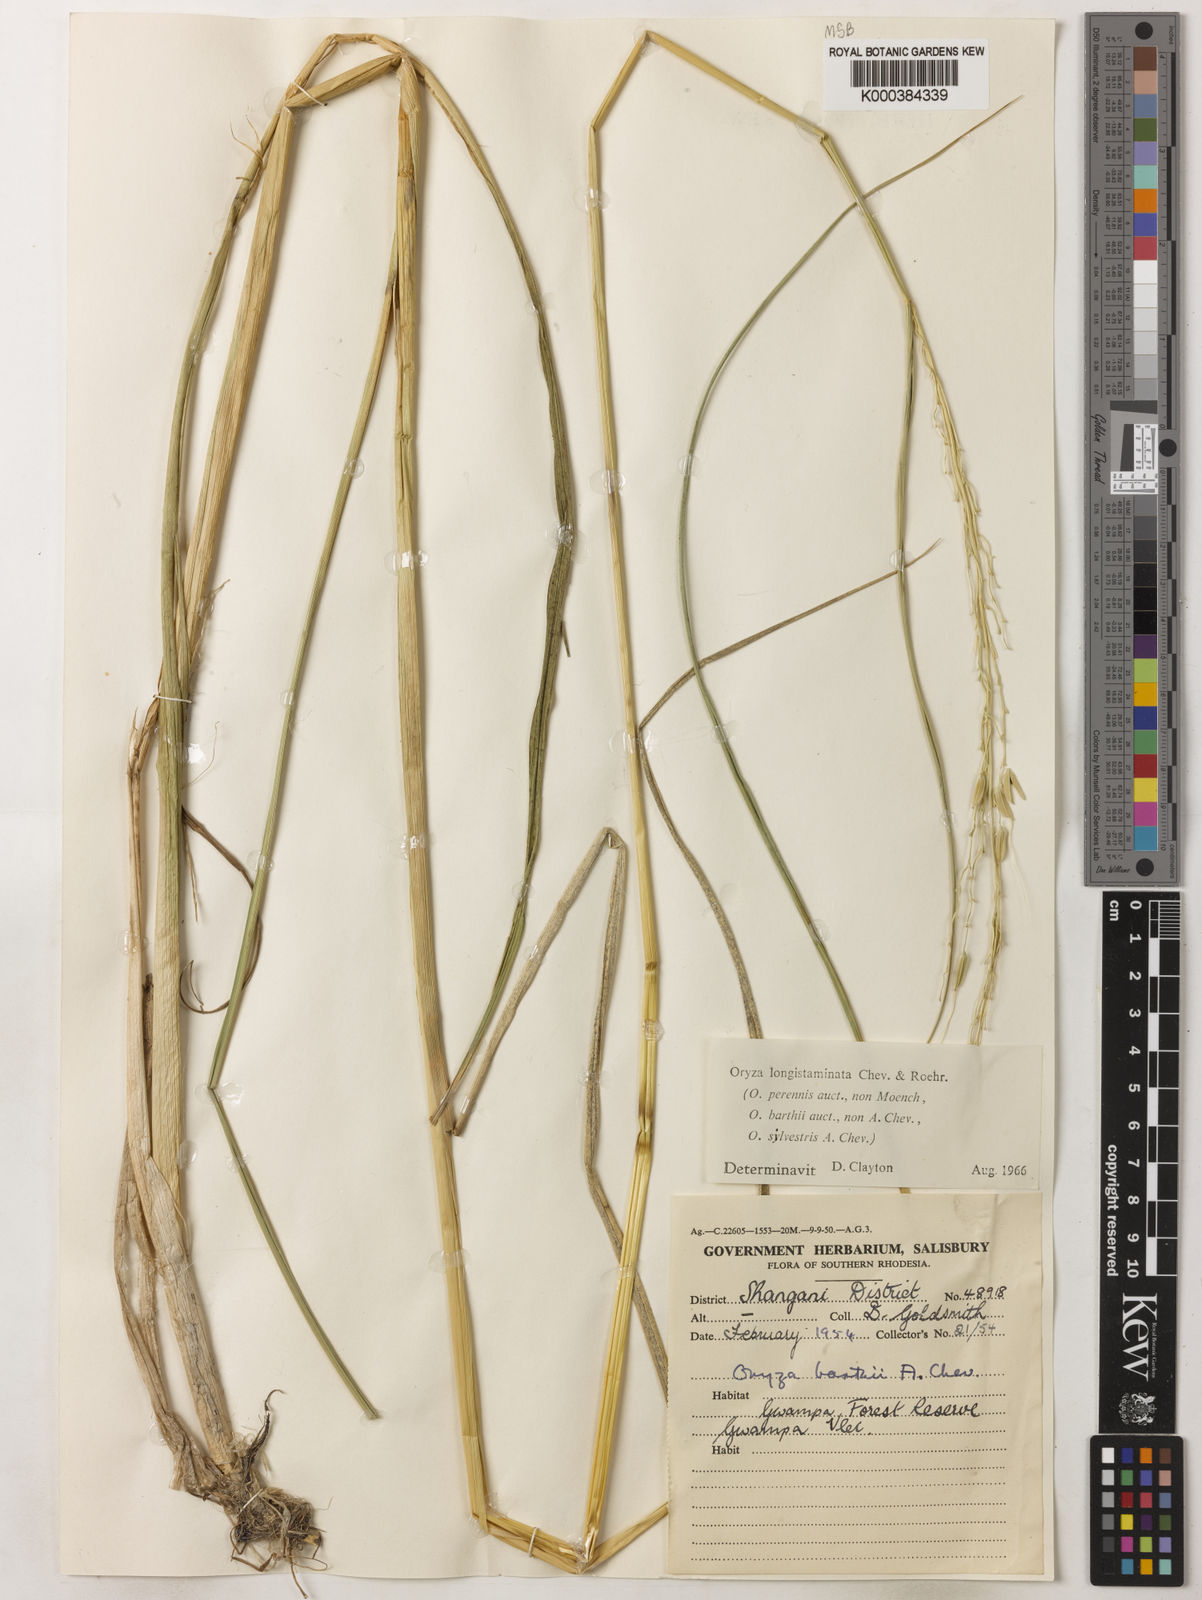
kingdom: Plantae
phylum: Tracheophyta
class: Liliopsida
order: Poales
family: Poaceae
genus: Oryza
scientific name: Oryza longistaminata
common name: Red rice
